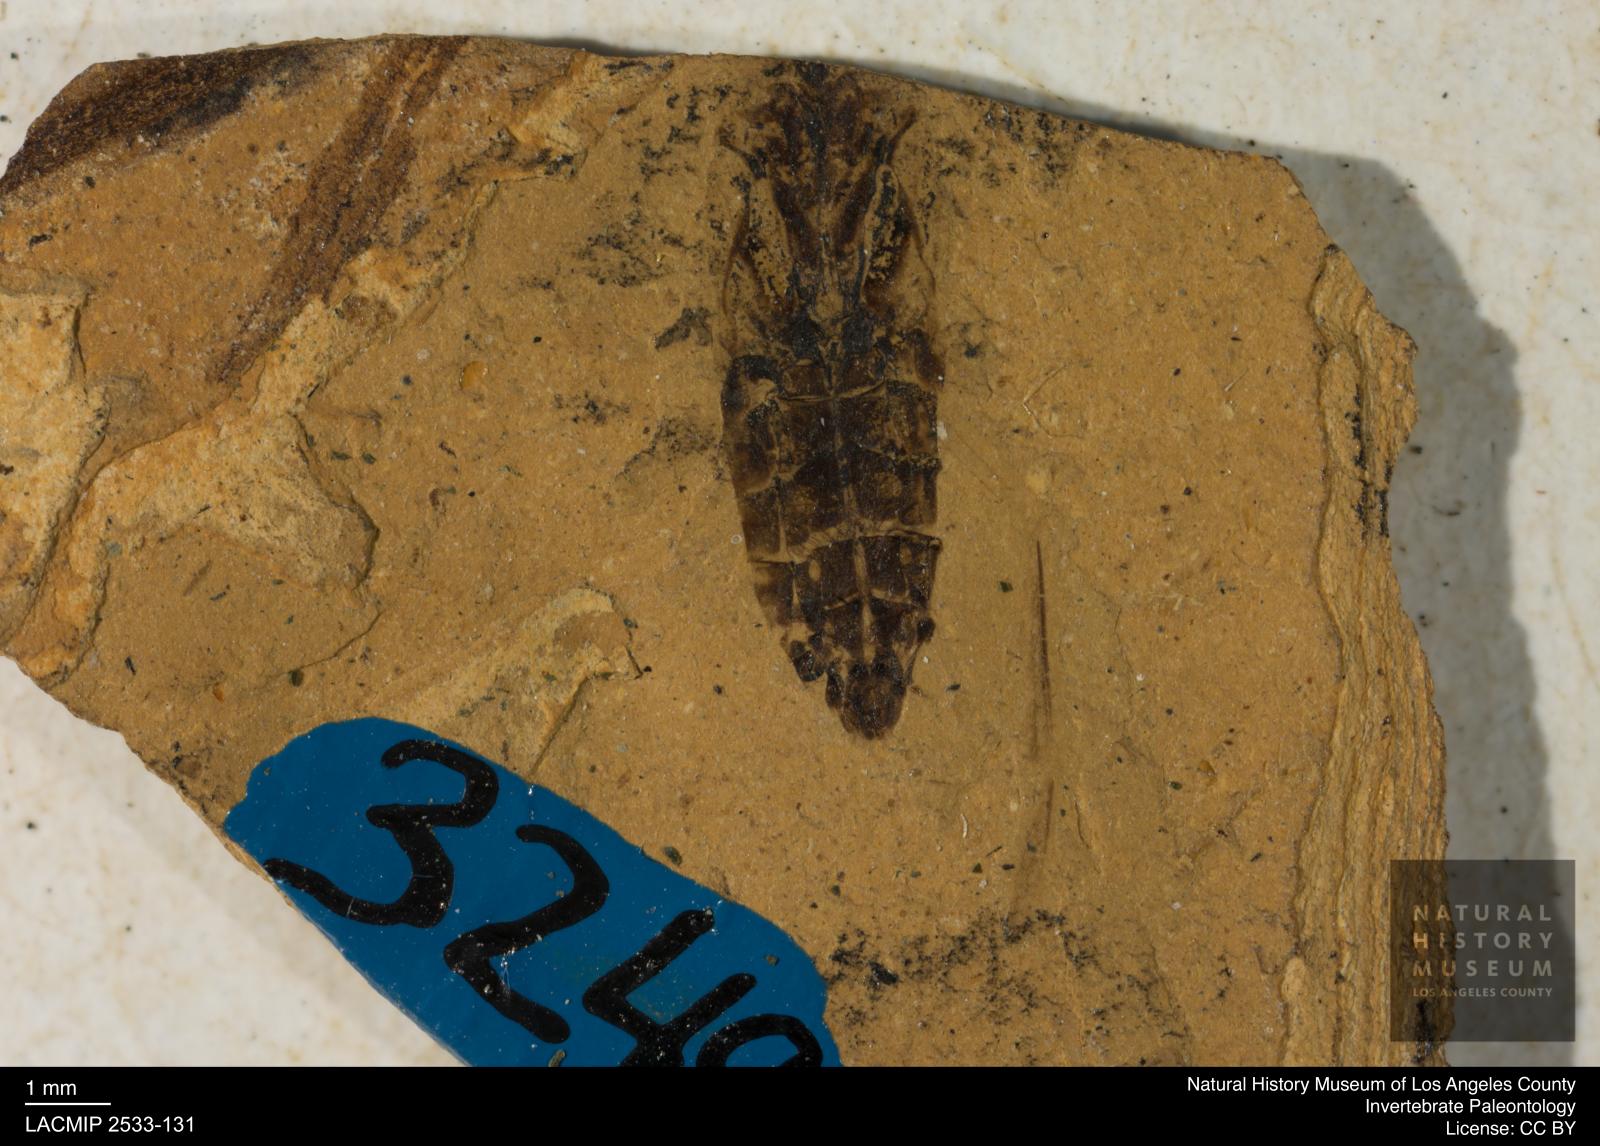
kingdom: Animalia
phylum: Arthropoda
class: Insecta
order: Hemiptera
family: Notonectidae
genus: Anisops
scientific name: Anisops Notonecta heydeni
